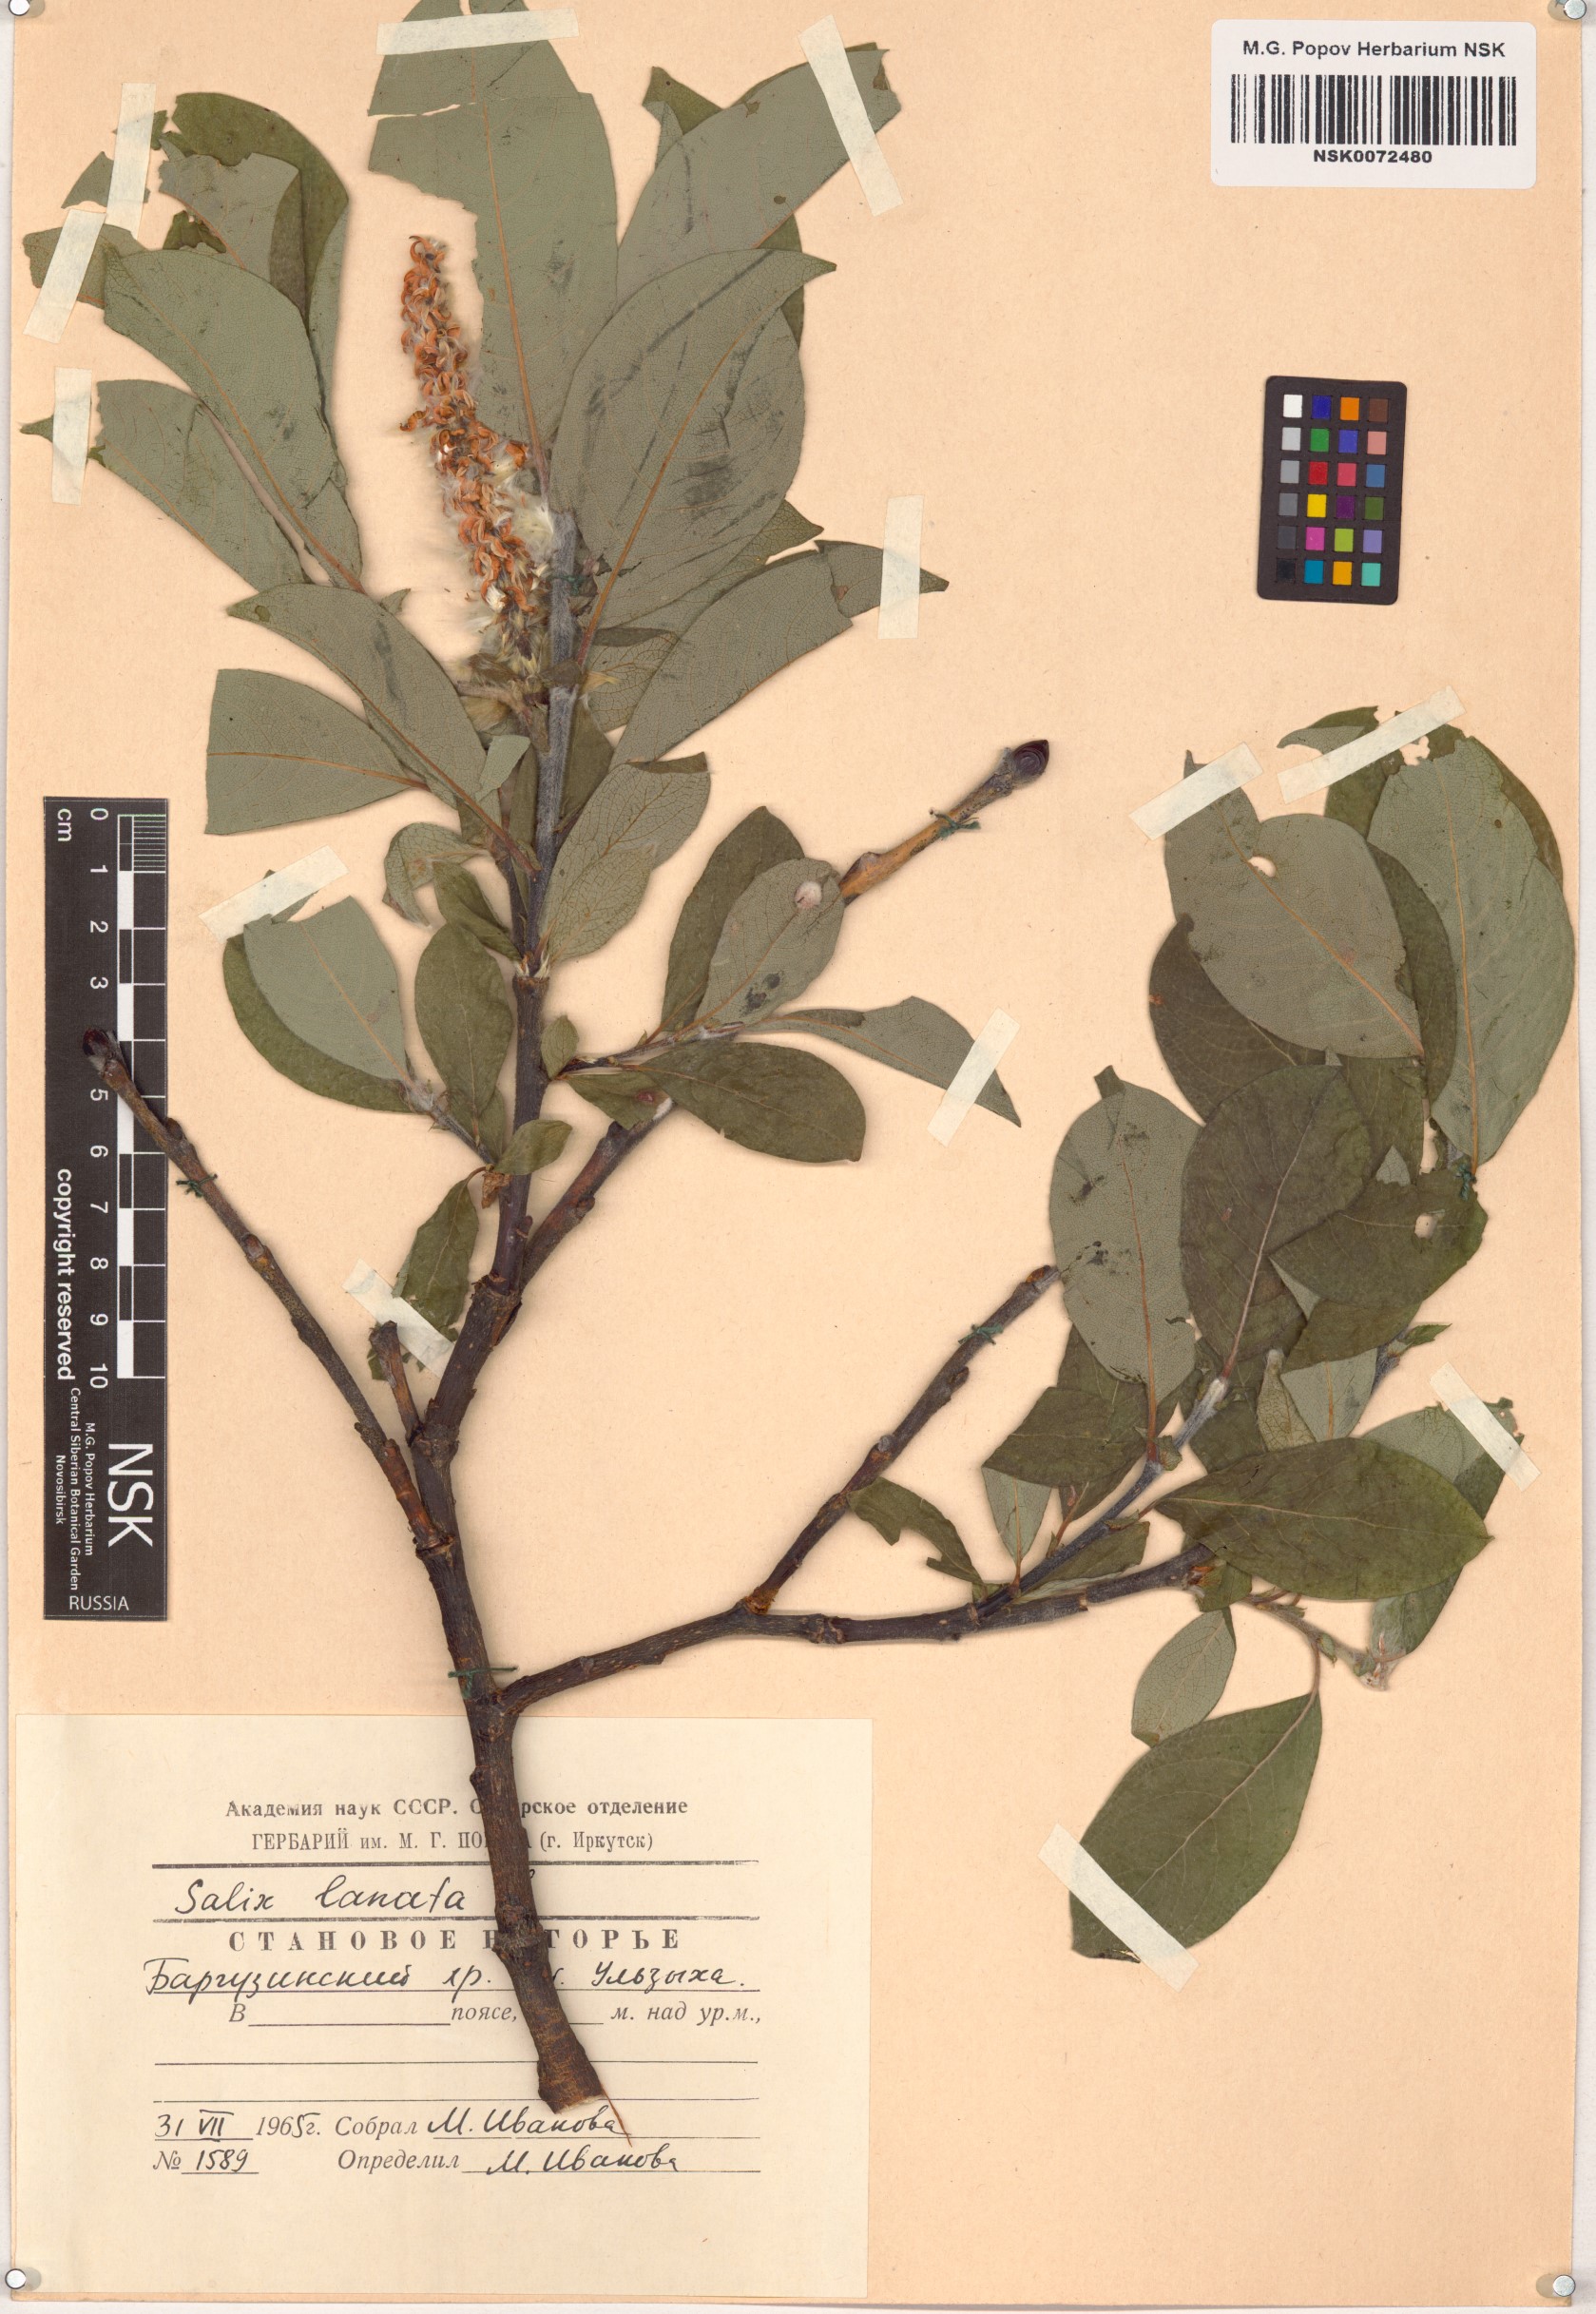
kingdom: Plantae
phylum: Tracheophyta
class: Magnoliopsida
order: Malpighiales
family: Salicaceae
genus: Salix
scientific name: Salix lanata
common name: Woolly willow
